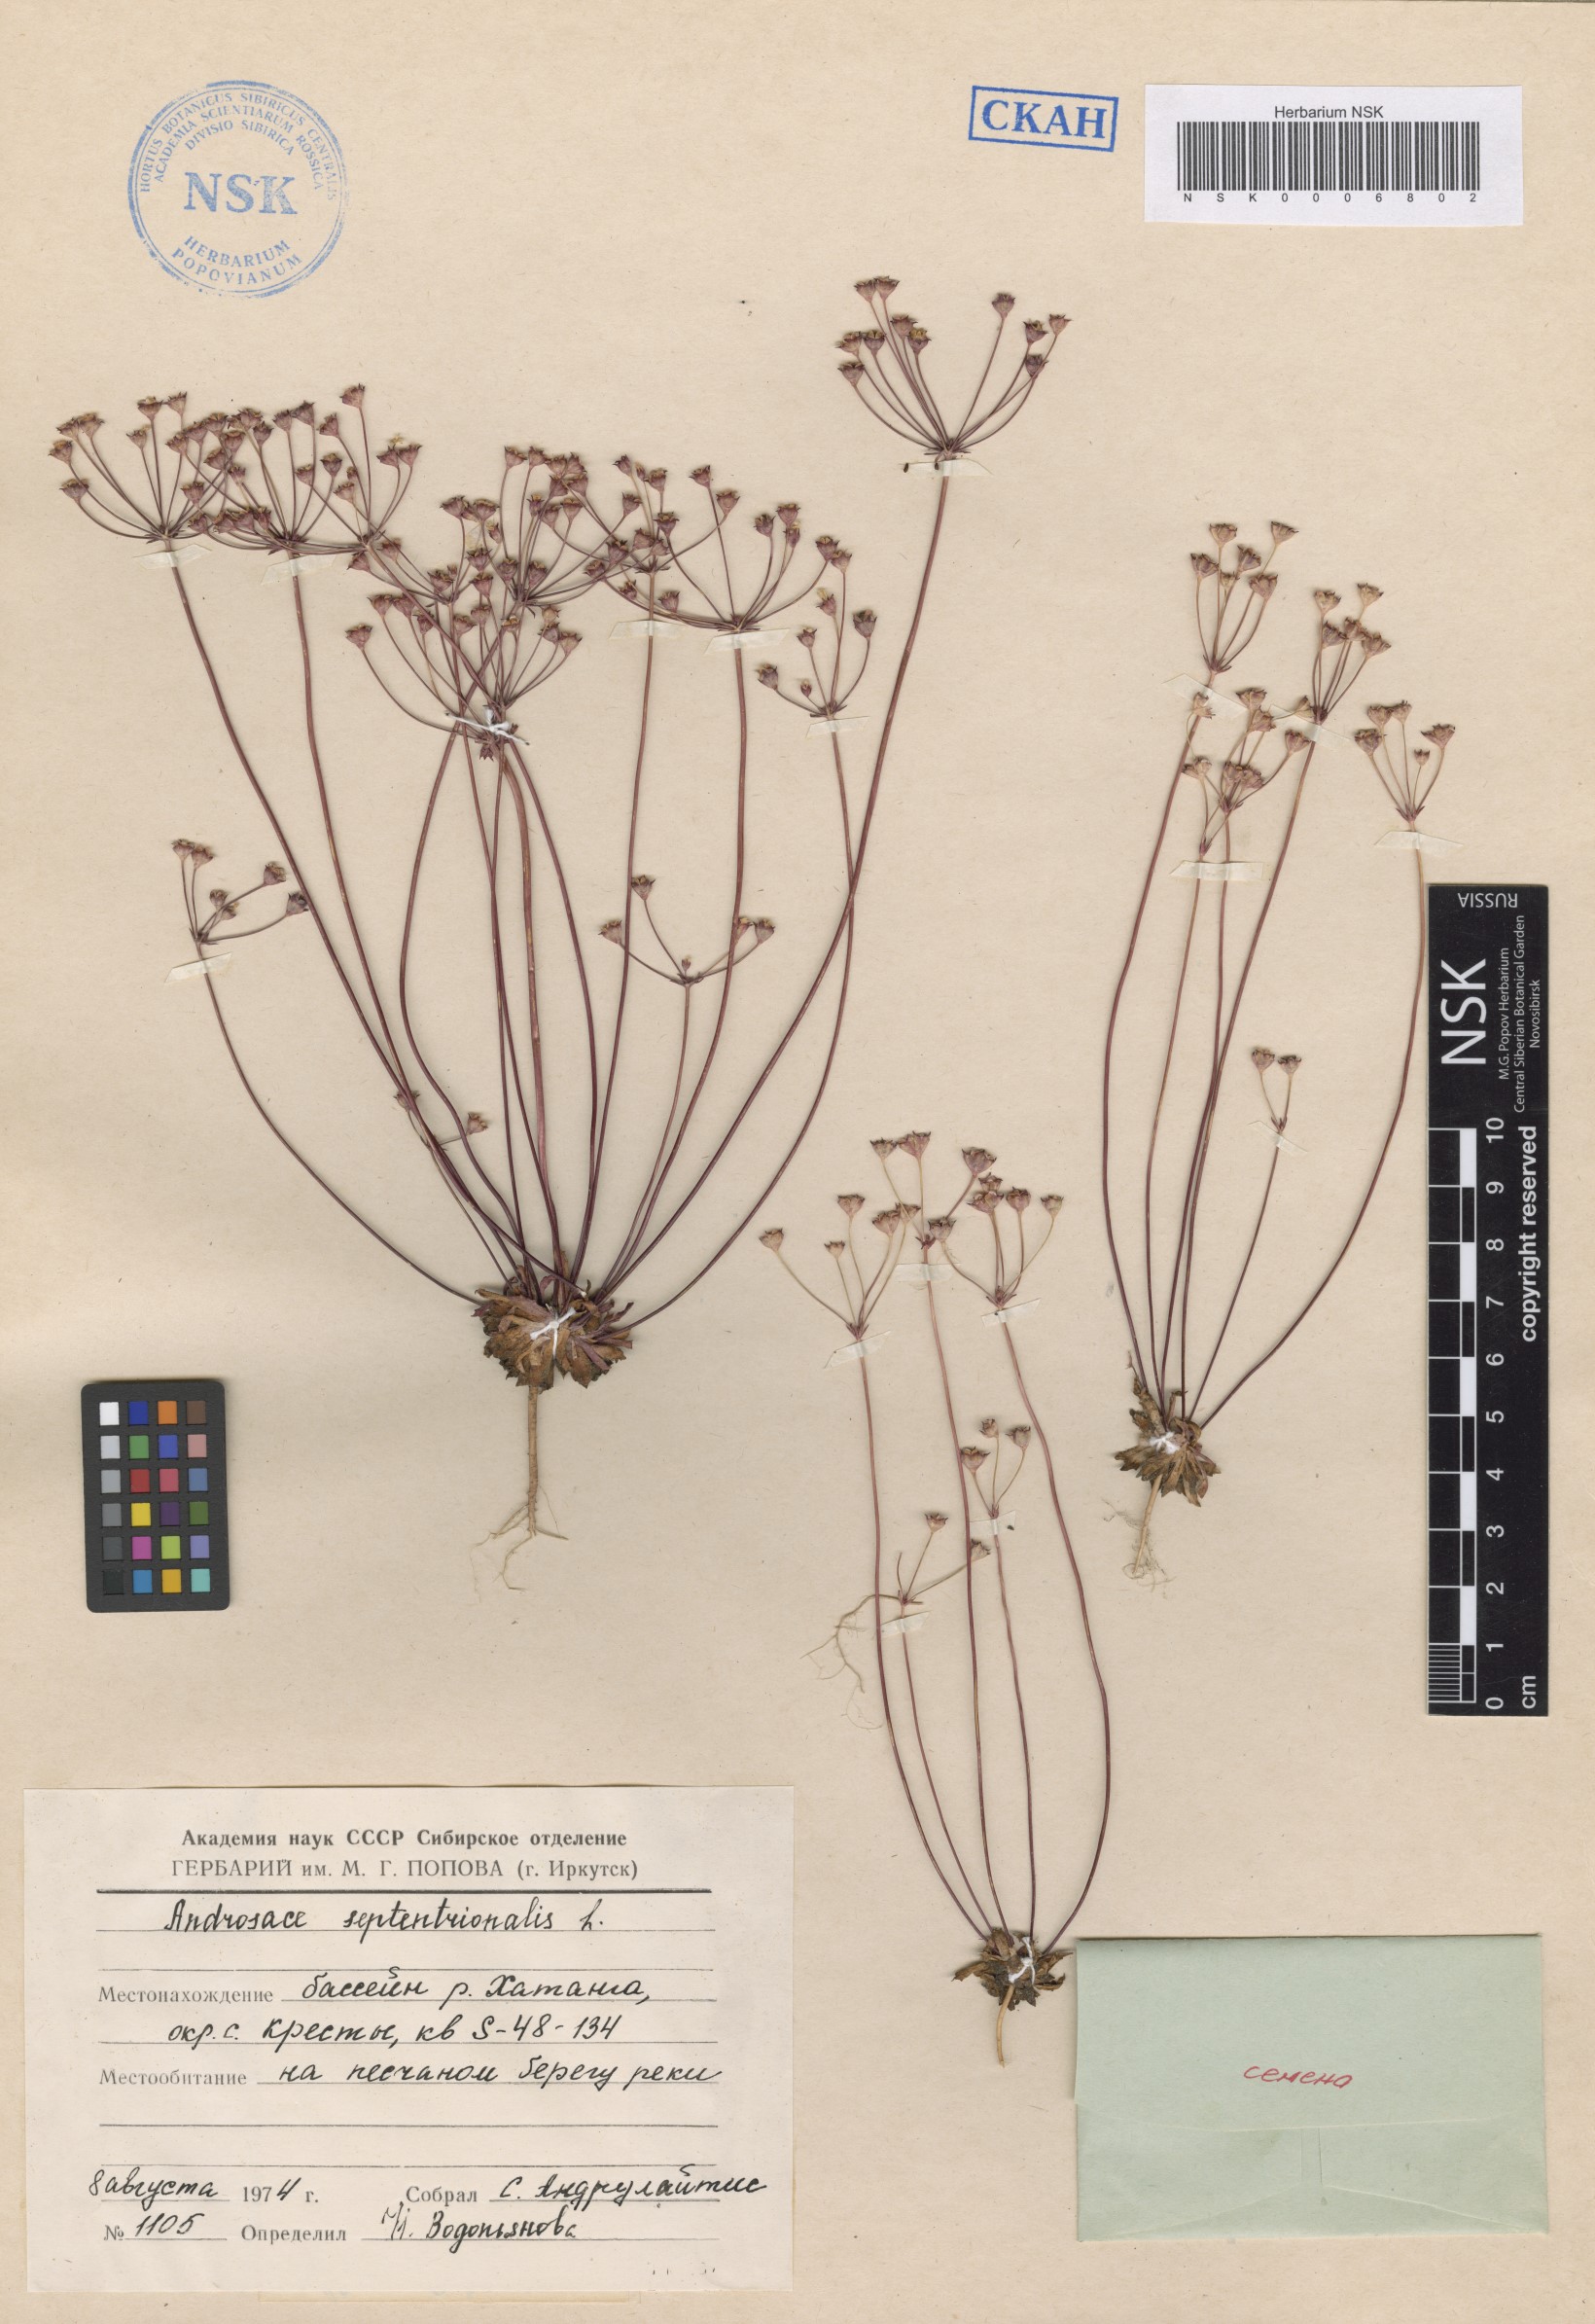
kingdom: Plantae
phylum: Tracheophyta
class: Magnoliopsida
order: Ericales
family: Primulaceae
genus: Androsace
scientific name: Androsace septentrionalis
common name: Hairy northern fairy-candelabra
